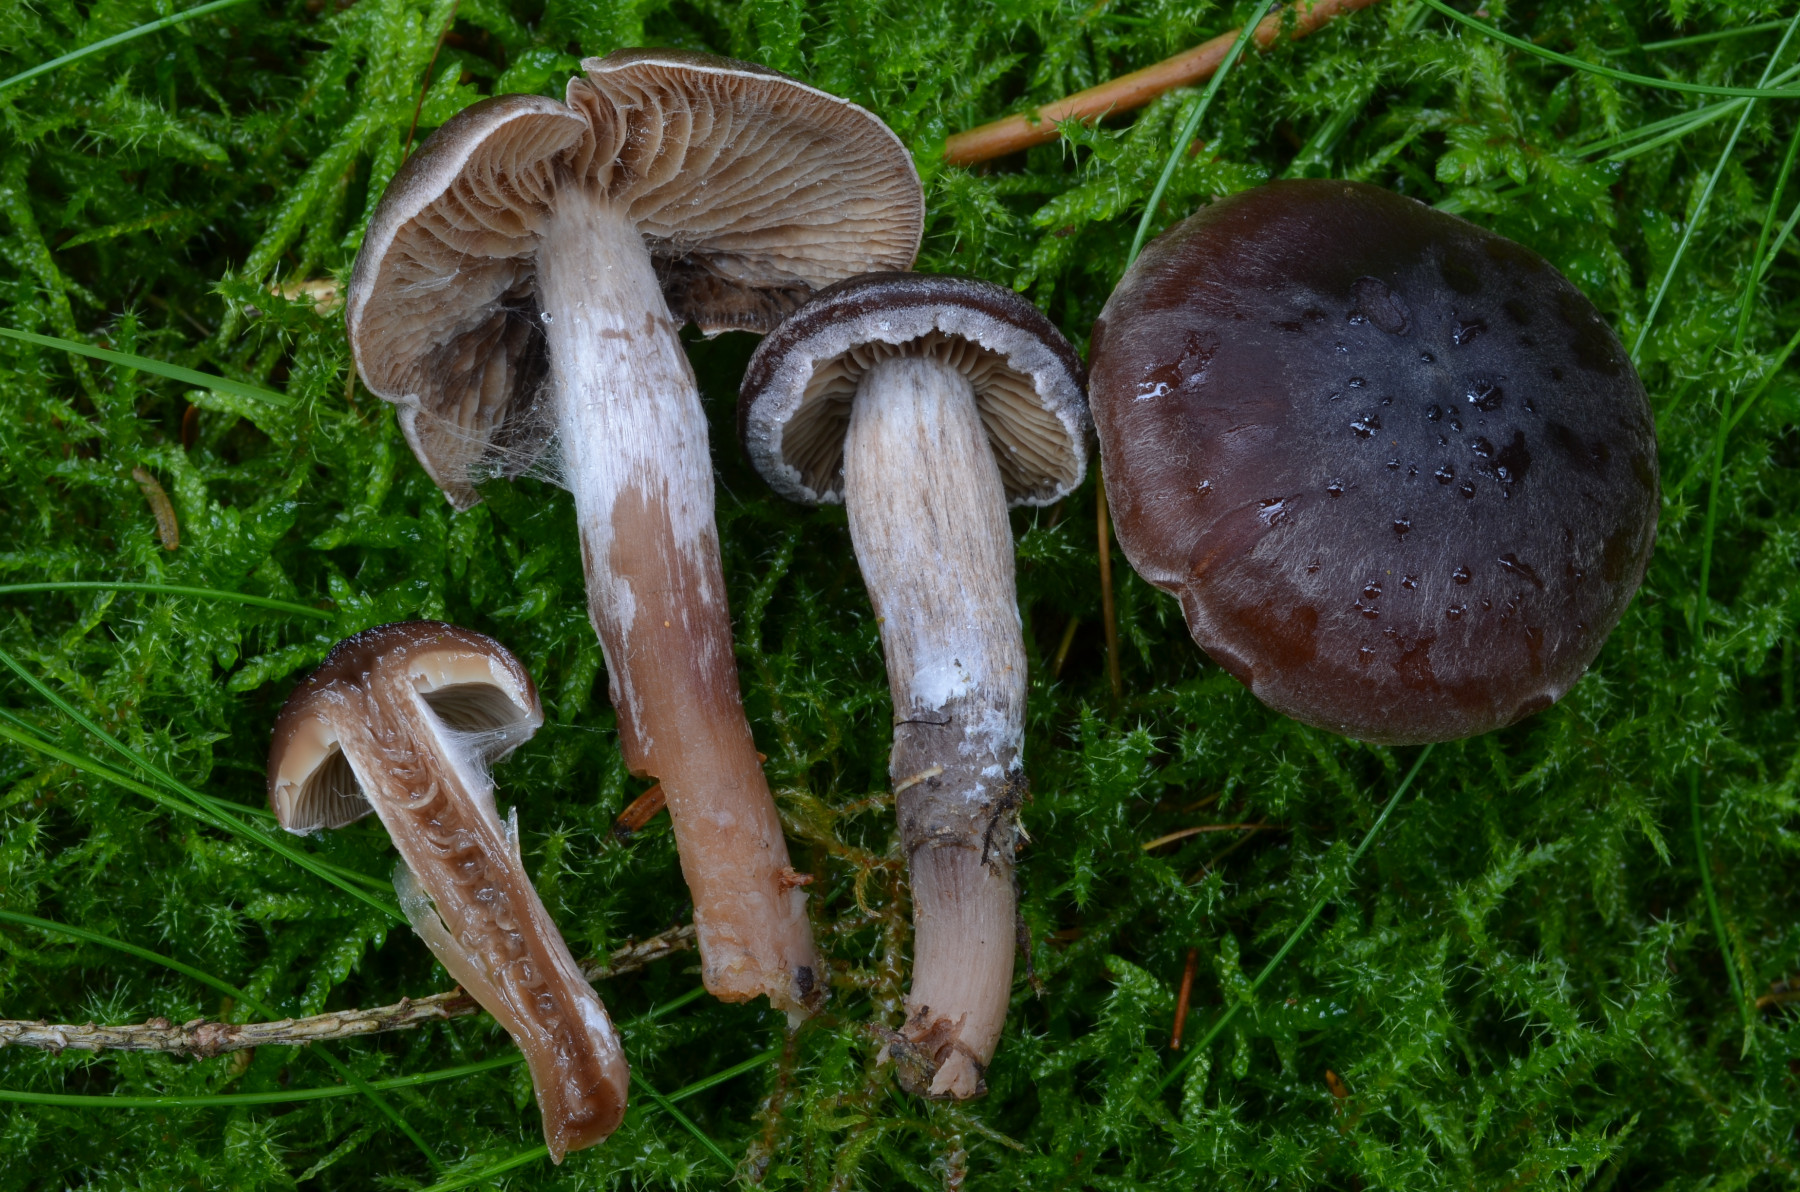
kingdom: Fungi
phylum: Basidiomycota
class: Agaricomycetes
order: Agaricales
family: Cortinariaceae
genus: Cortinarius
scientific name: Cortinarius fuscoalbus
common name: lysbladet slørhat
